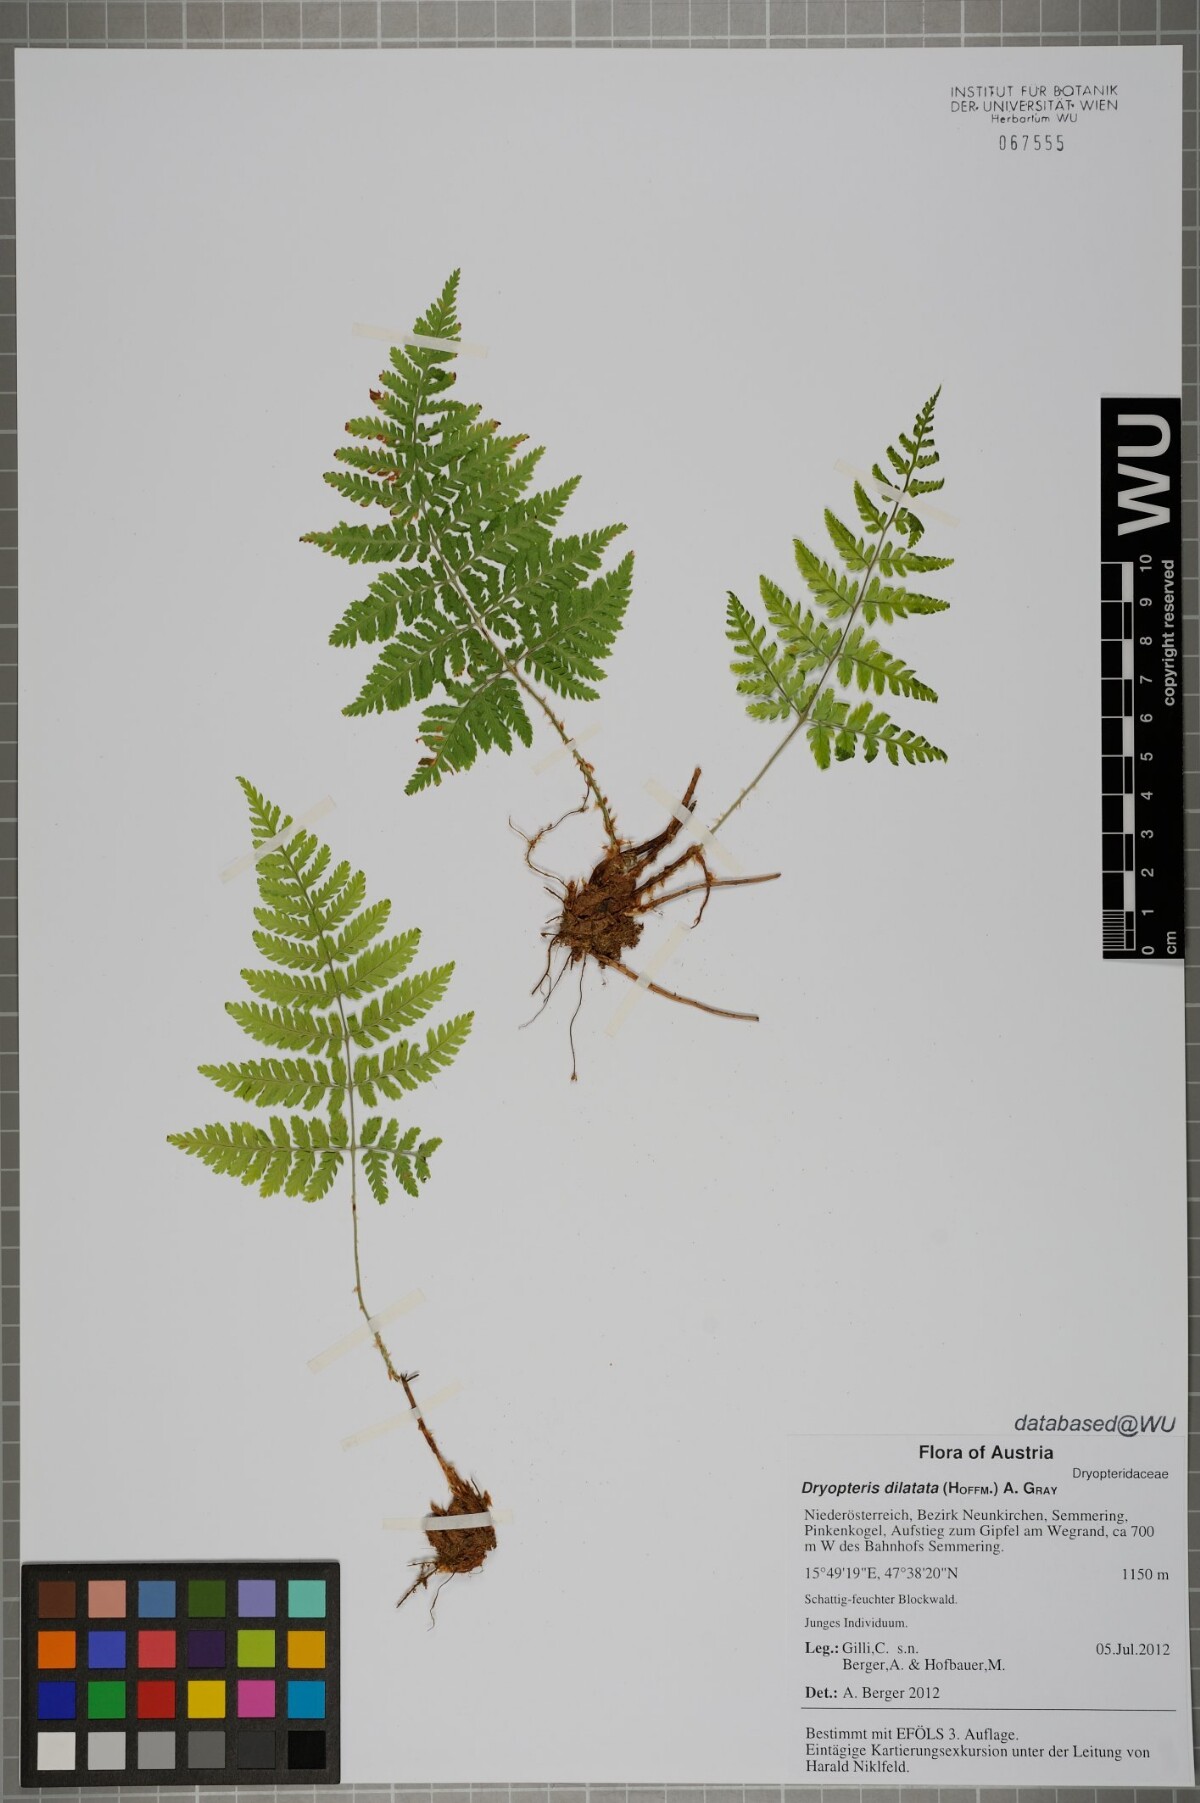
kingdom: Plantae
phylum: Tracheophyta
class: Polypodiopsida
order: Polypodiales
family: Dryopteridaceae
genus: Dryopteris
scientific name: Dryopteris dilatata
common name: Broad buckler-fern
